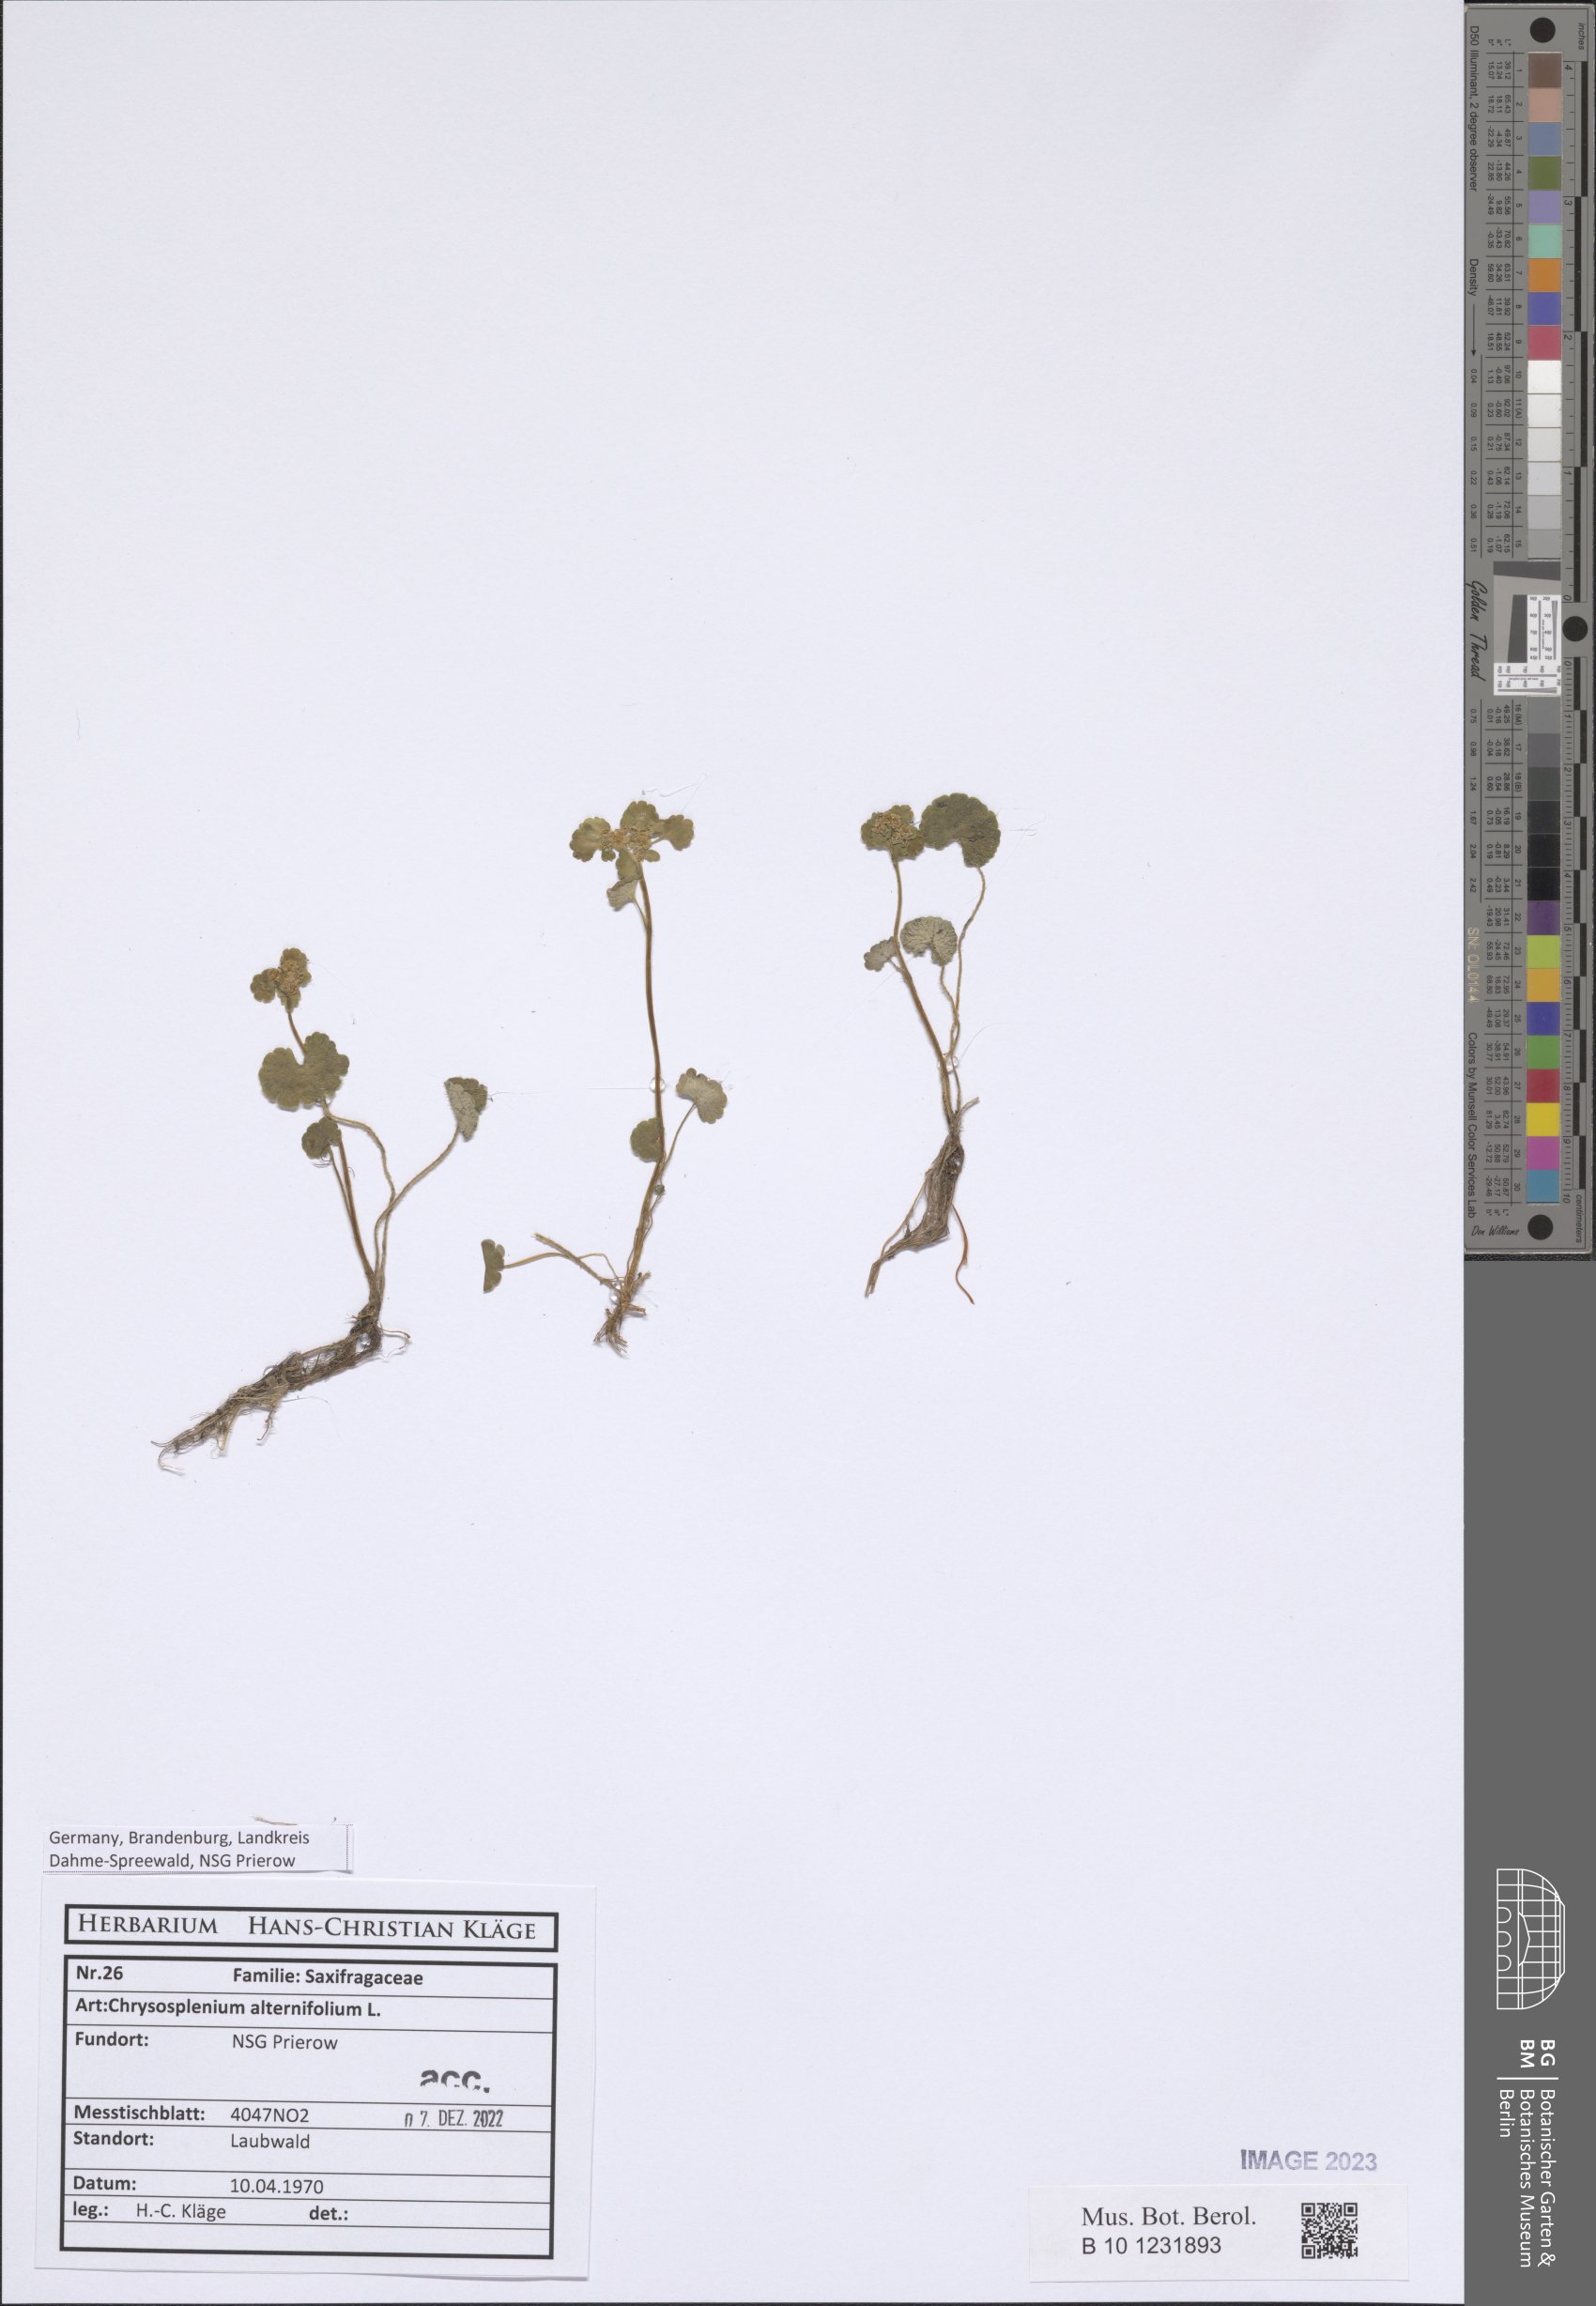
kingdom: Plantae
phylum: Tracheophyta
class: Magnoliopsida
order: Saxifragales
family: Saxifragaceae
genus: Chrysosplenium
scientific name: Chrysosplenium alternifolium
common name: Alternate-leaved golden-saxifrage
